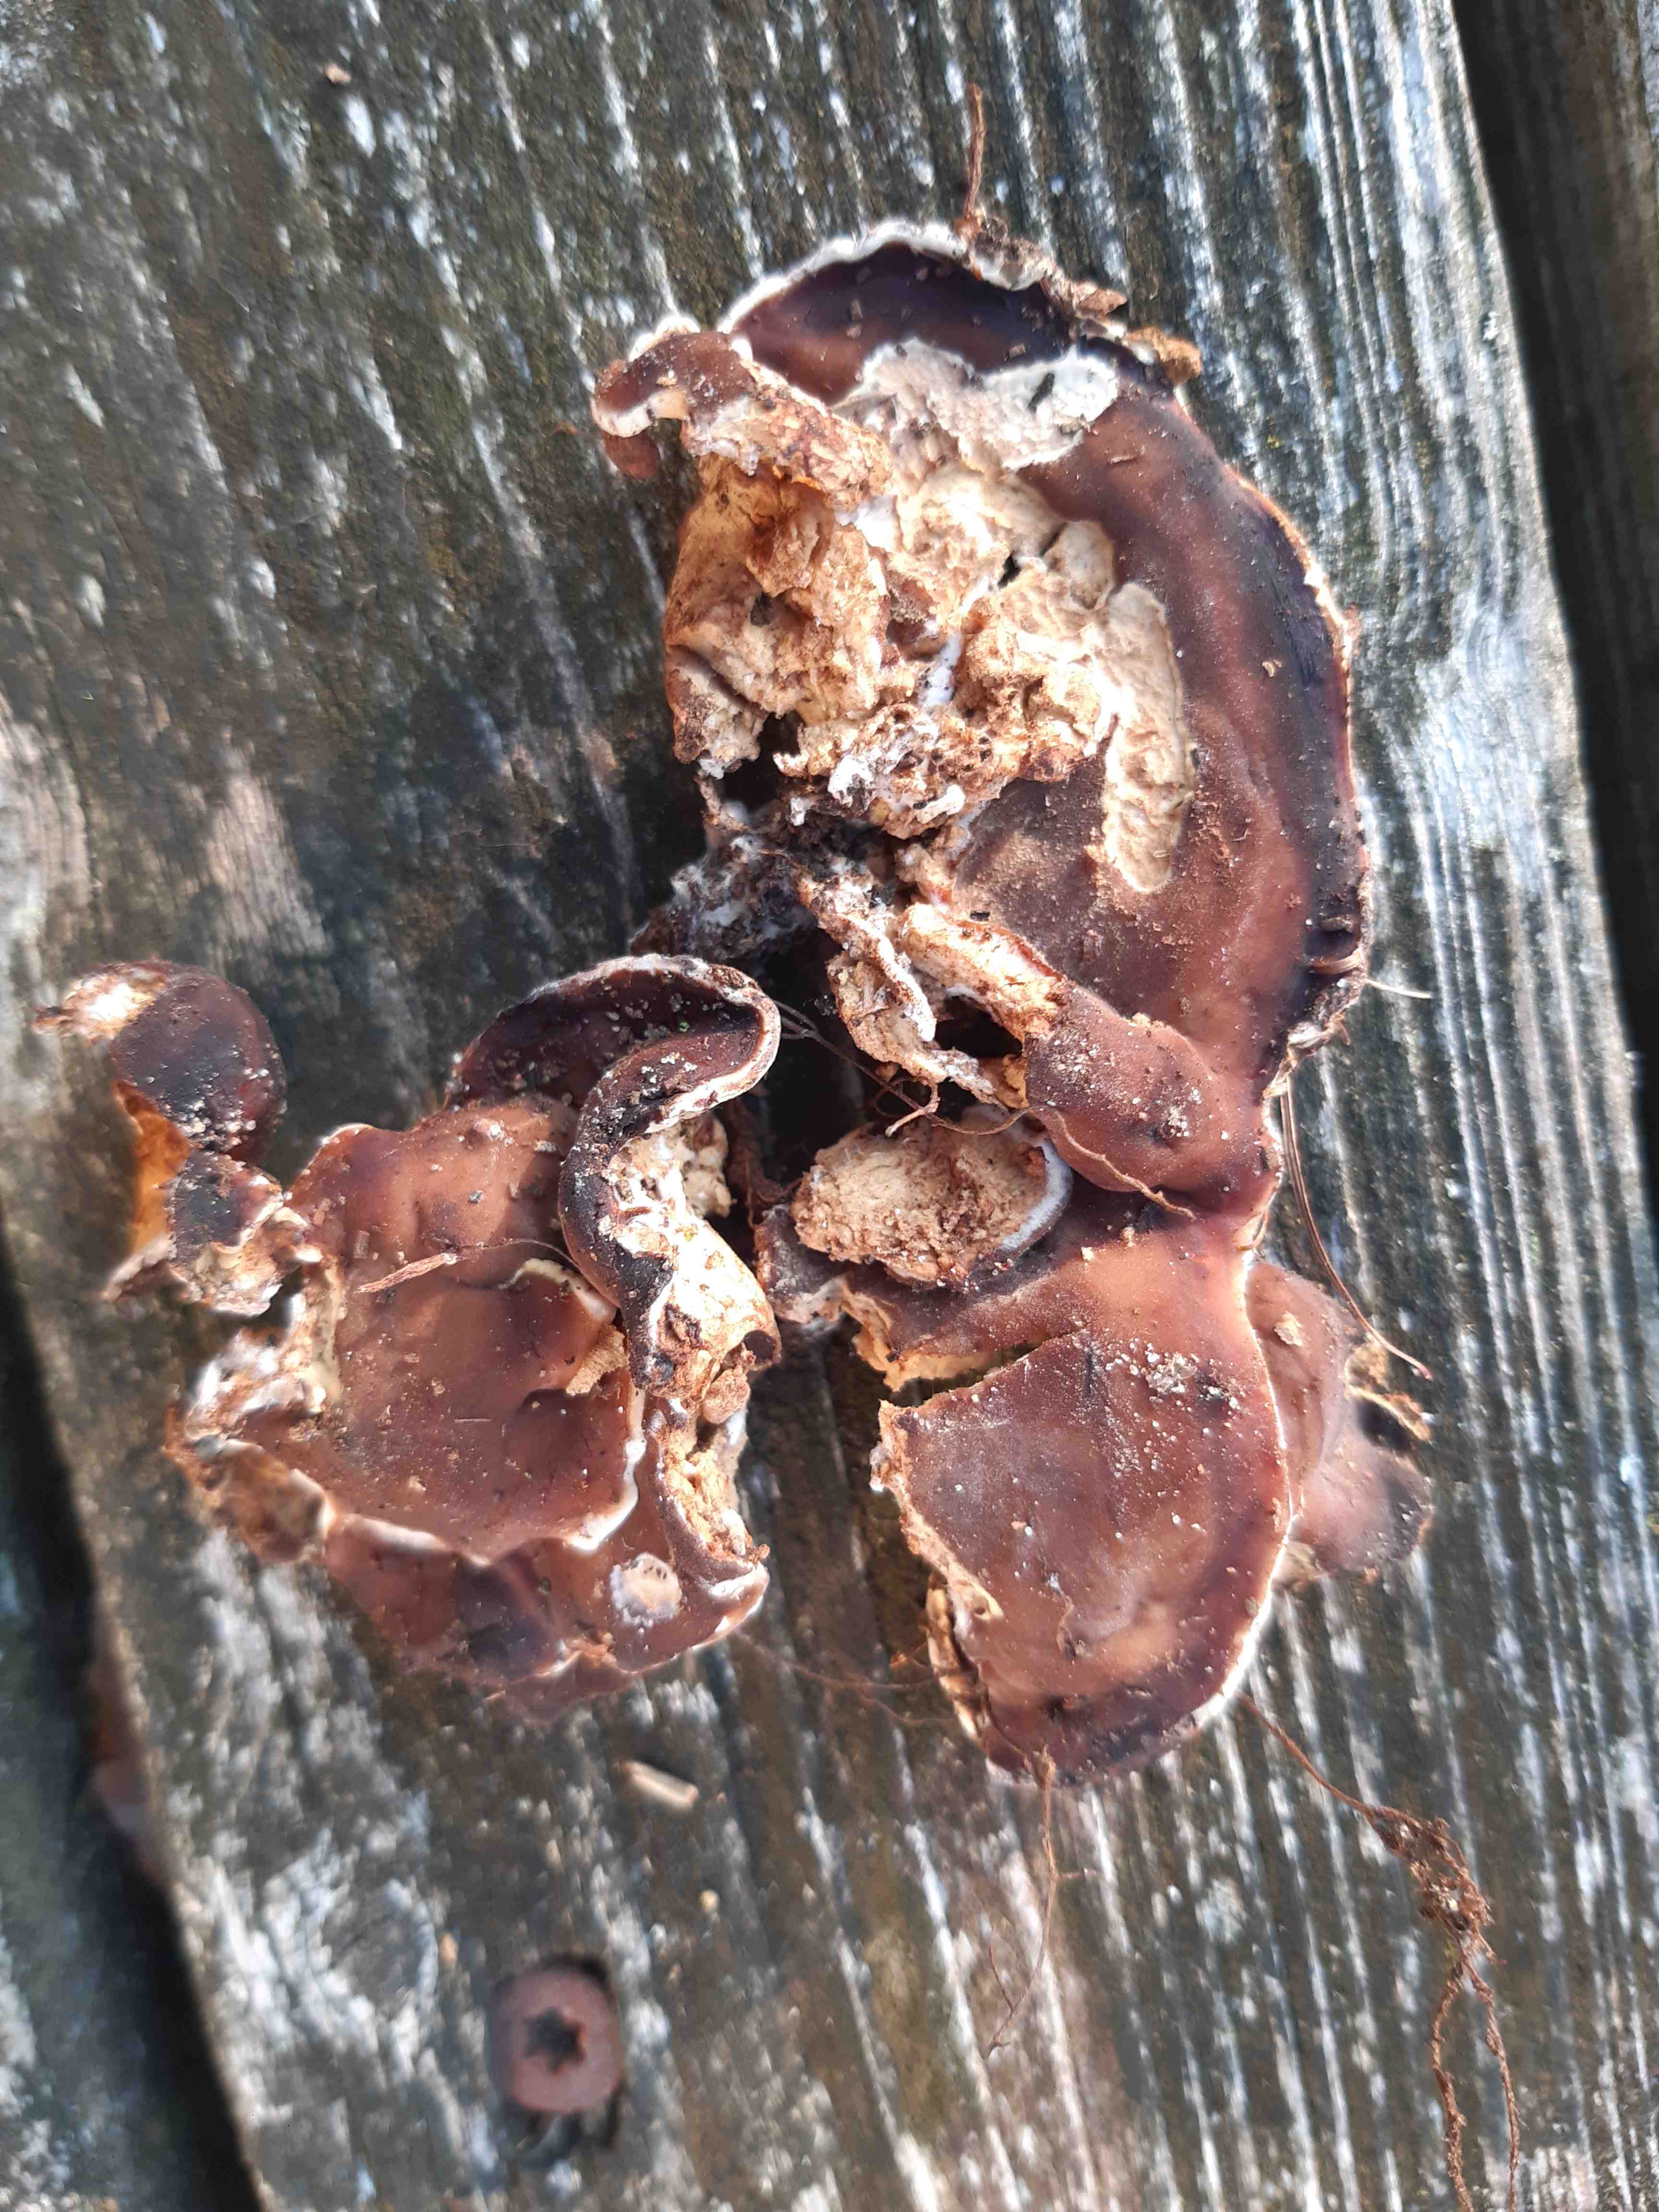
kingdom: Fungi
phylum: Ascomycota
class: Pezizomycetes
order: Pezizales
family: Rhizinaceae
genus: Rhizina
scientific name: Rhizina undulata
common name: rodmorkel
